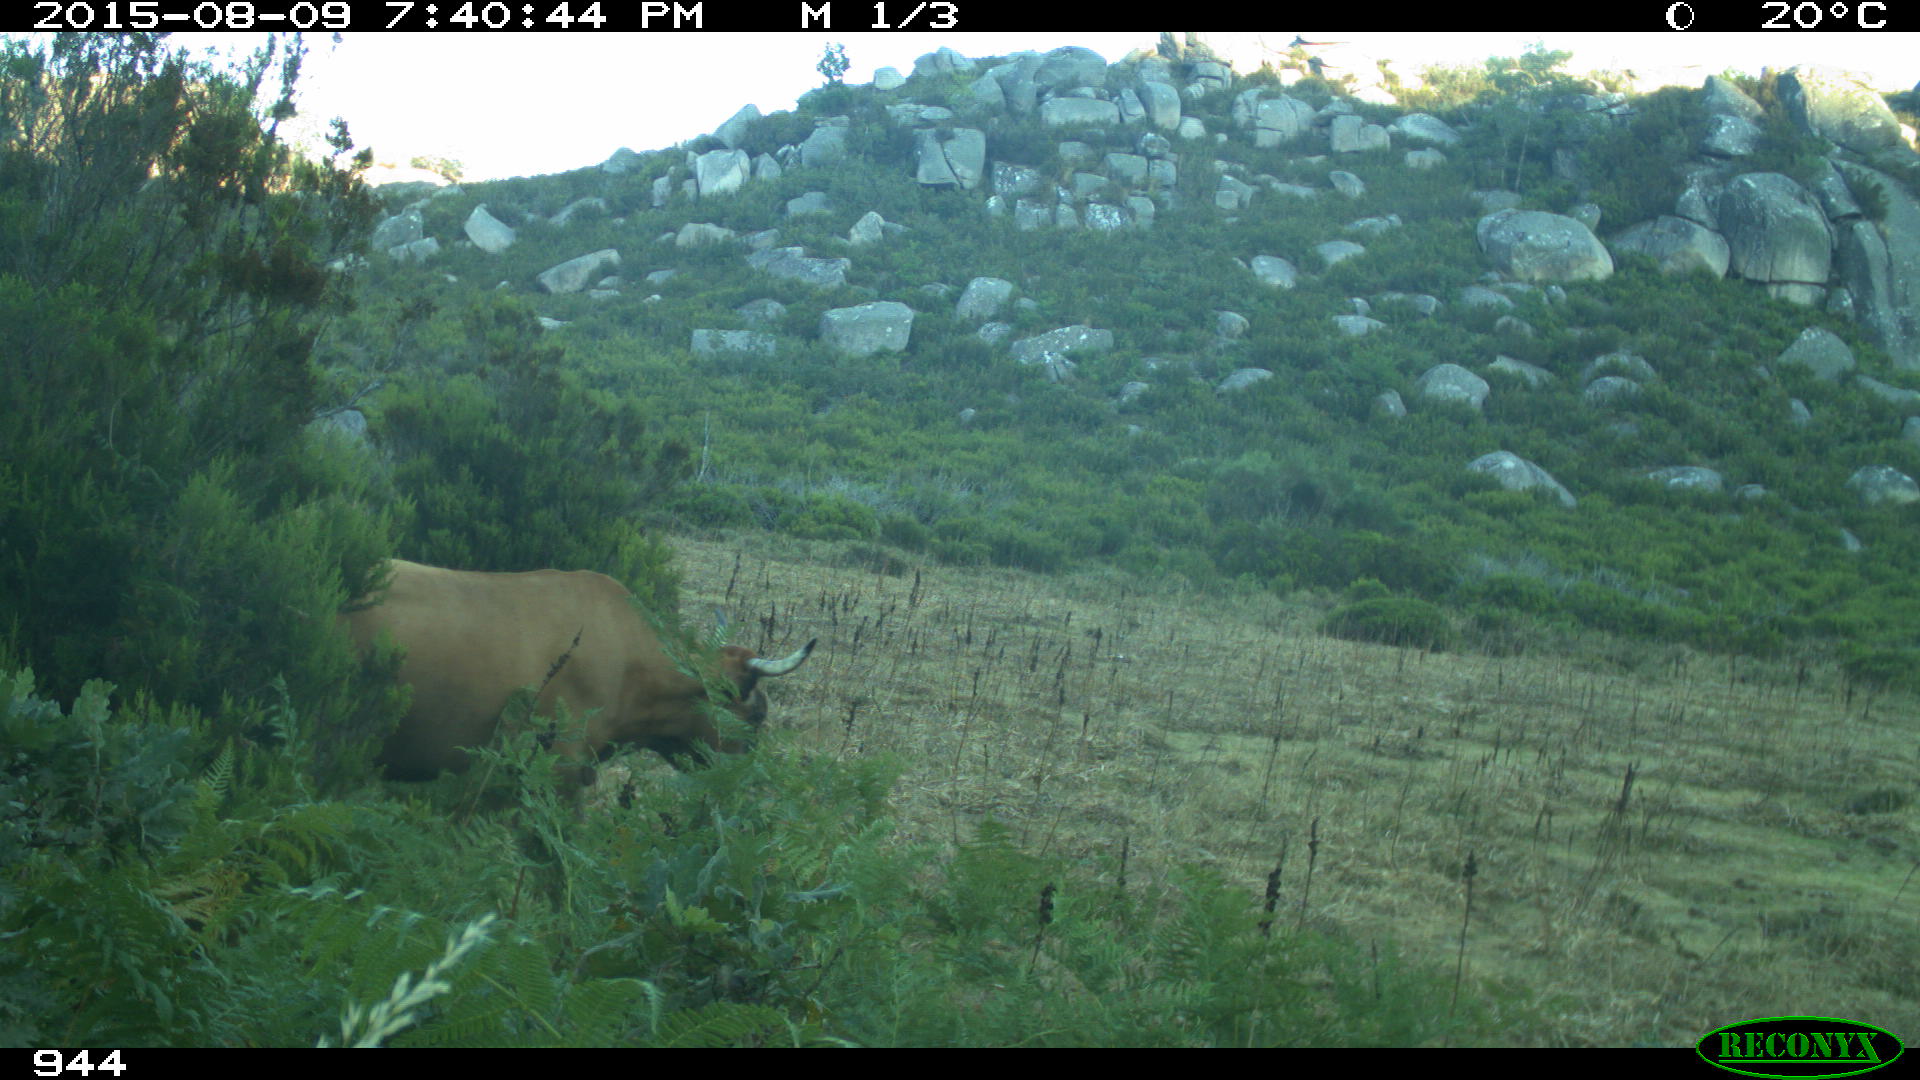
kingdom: Animalia
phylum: Chordata
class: Mammalia
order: Artiodactyla
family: Bovidae
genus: Bos
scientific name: Bos taurus
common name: Domesticated cattle
